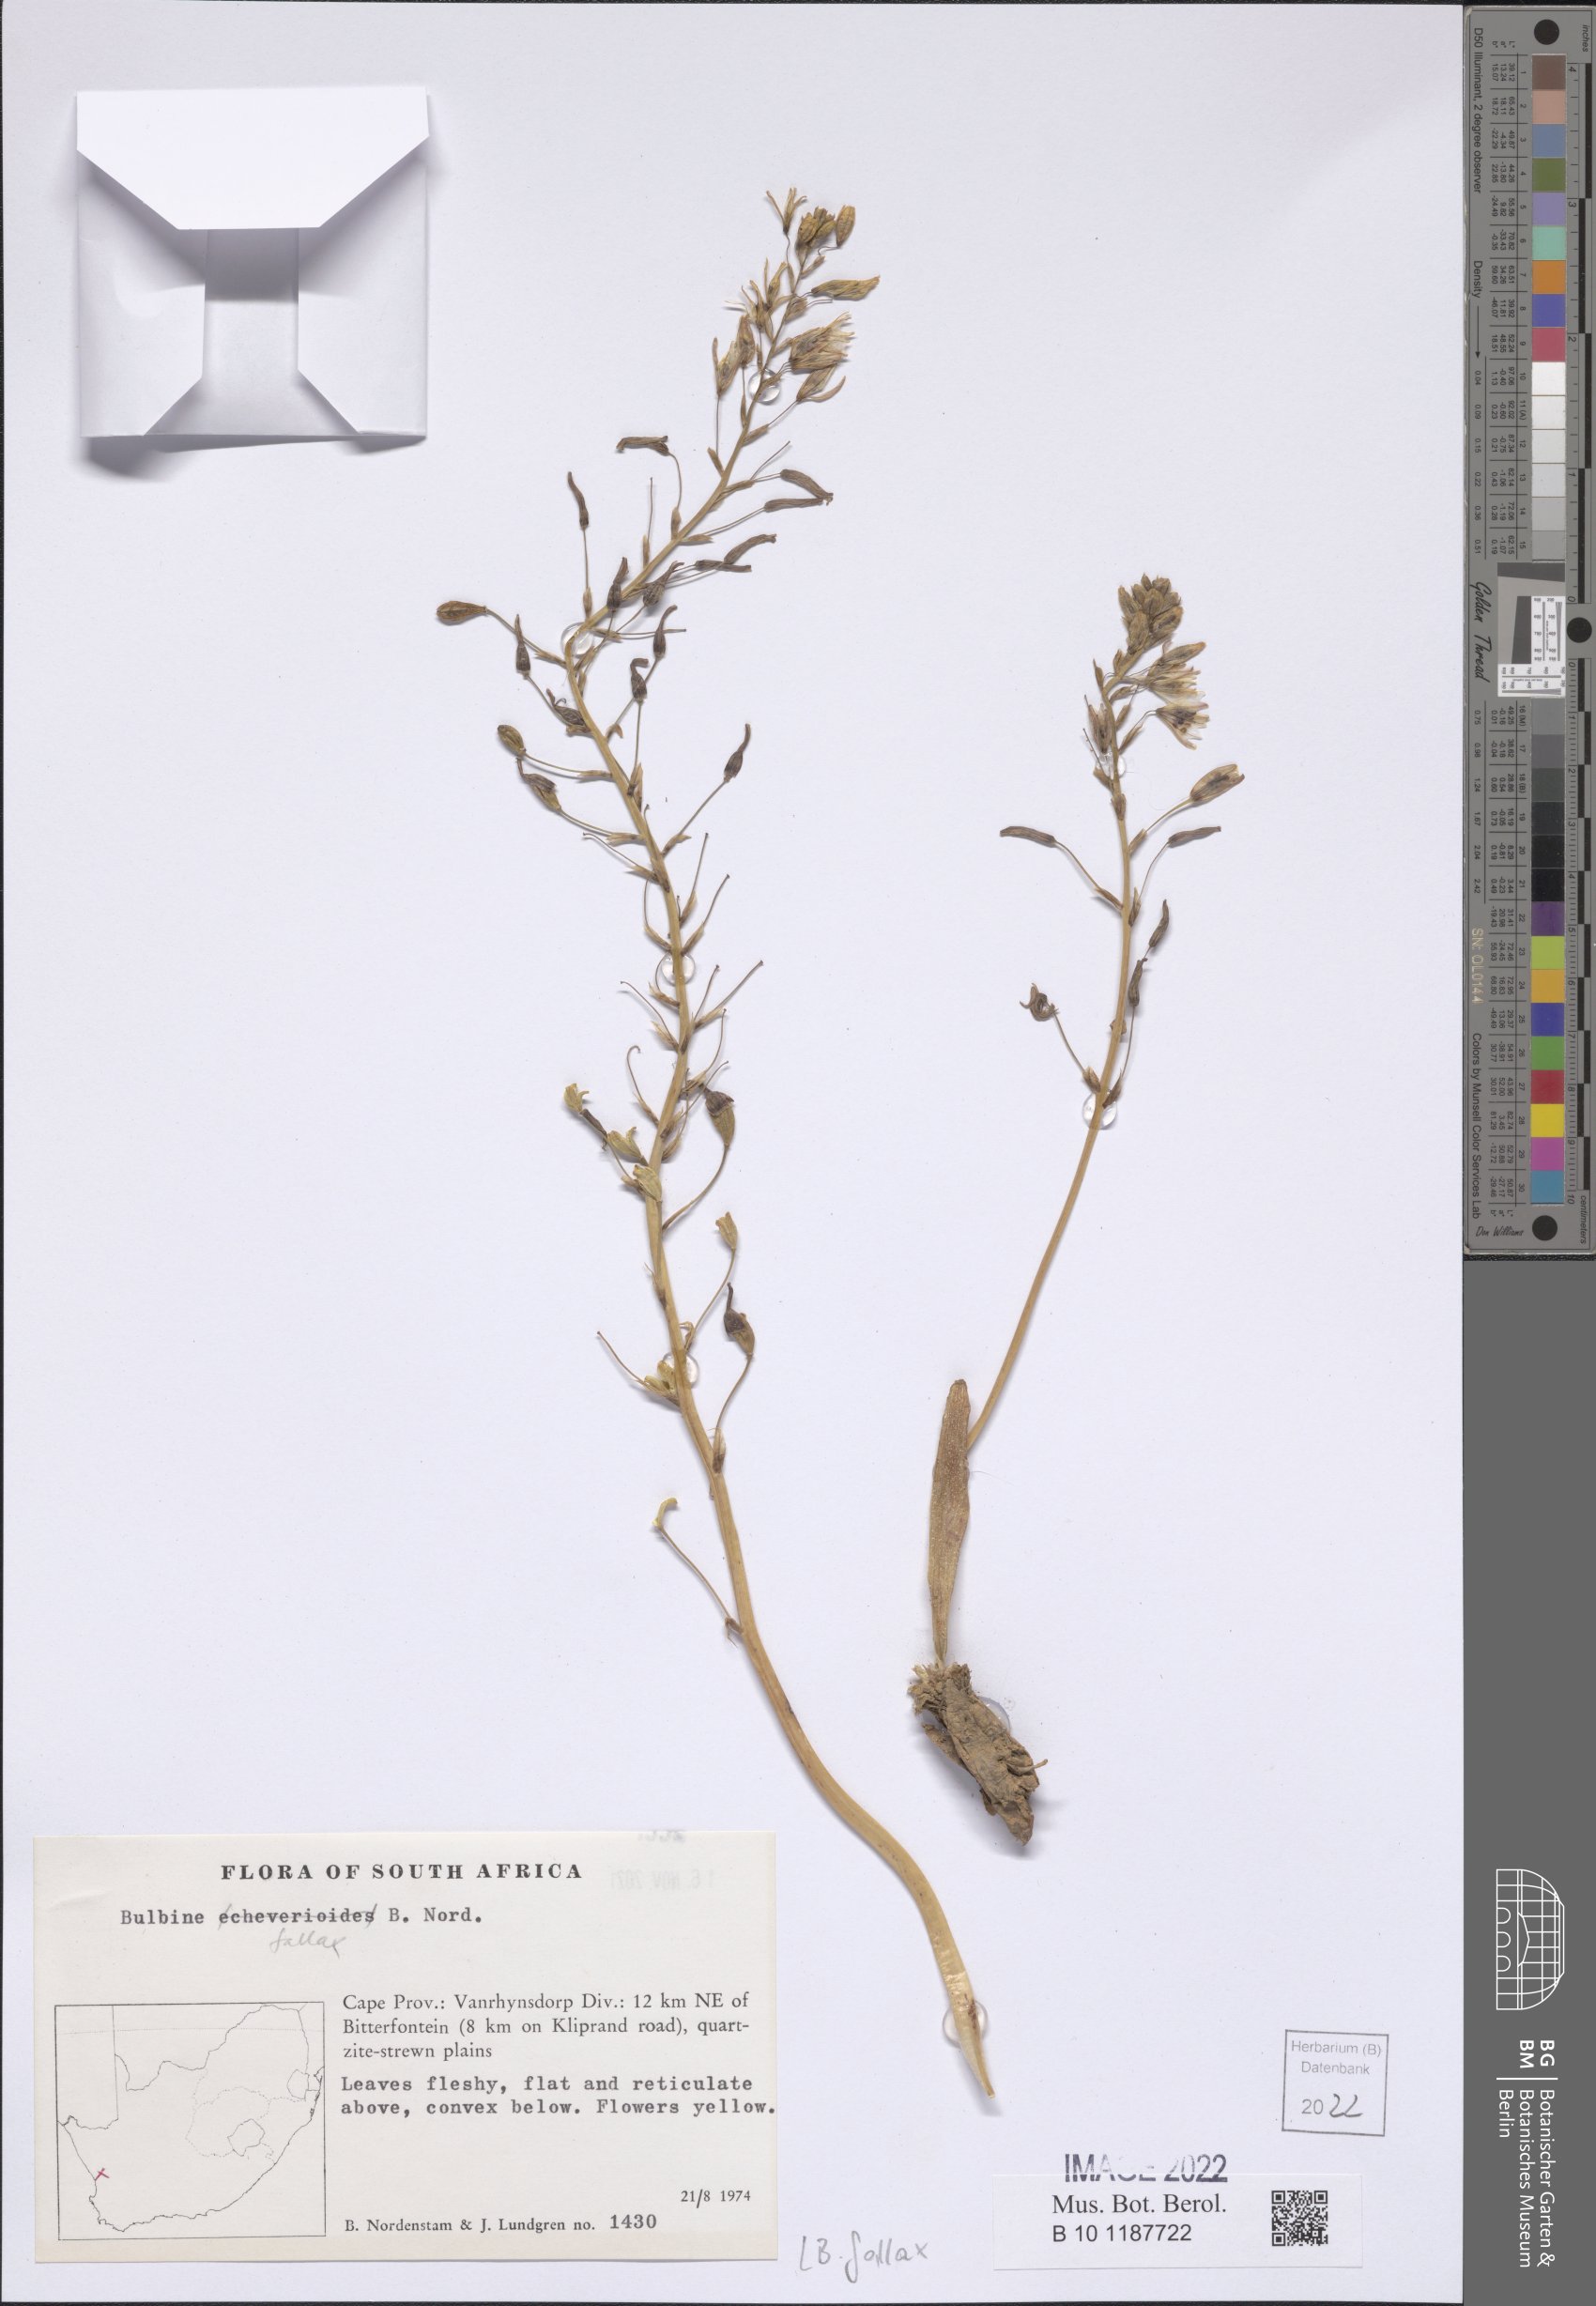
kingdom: Plantae
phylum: Tracheophyta
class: Liliopsida
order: Asparagales
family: Asphodelaceae
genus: Bulbine
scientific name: Bulbine fallax
